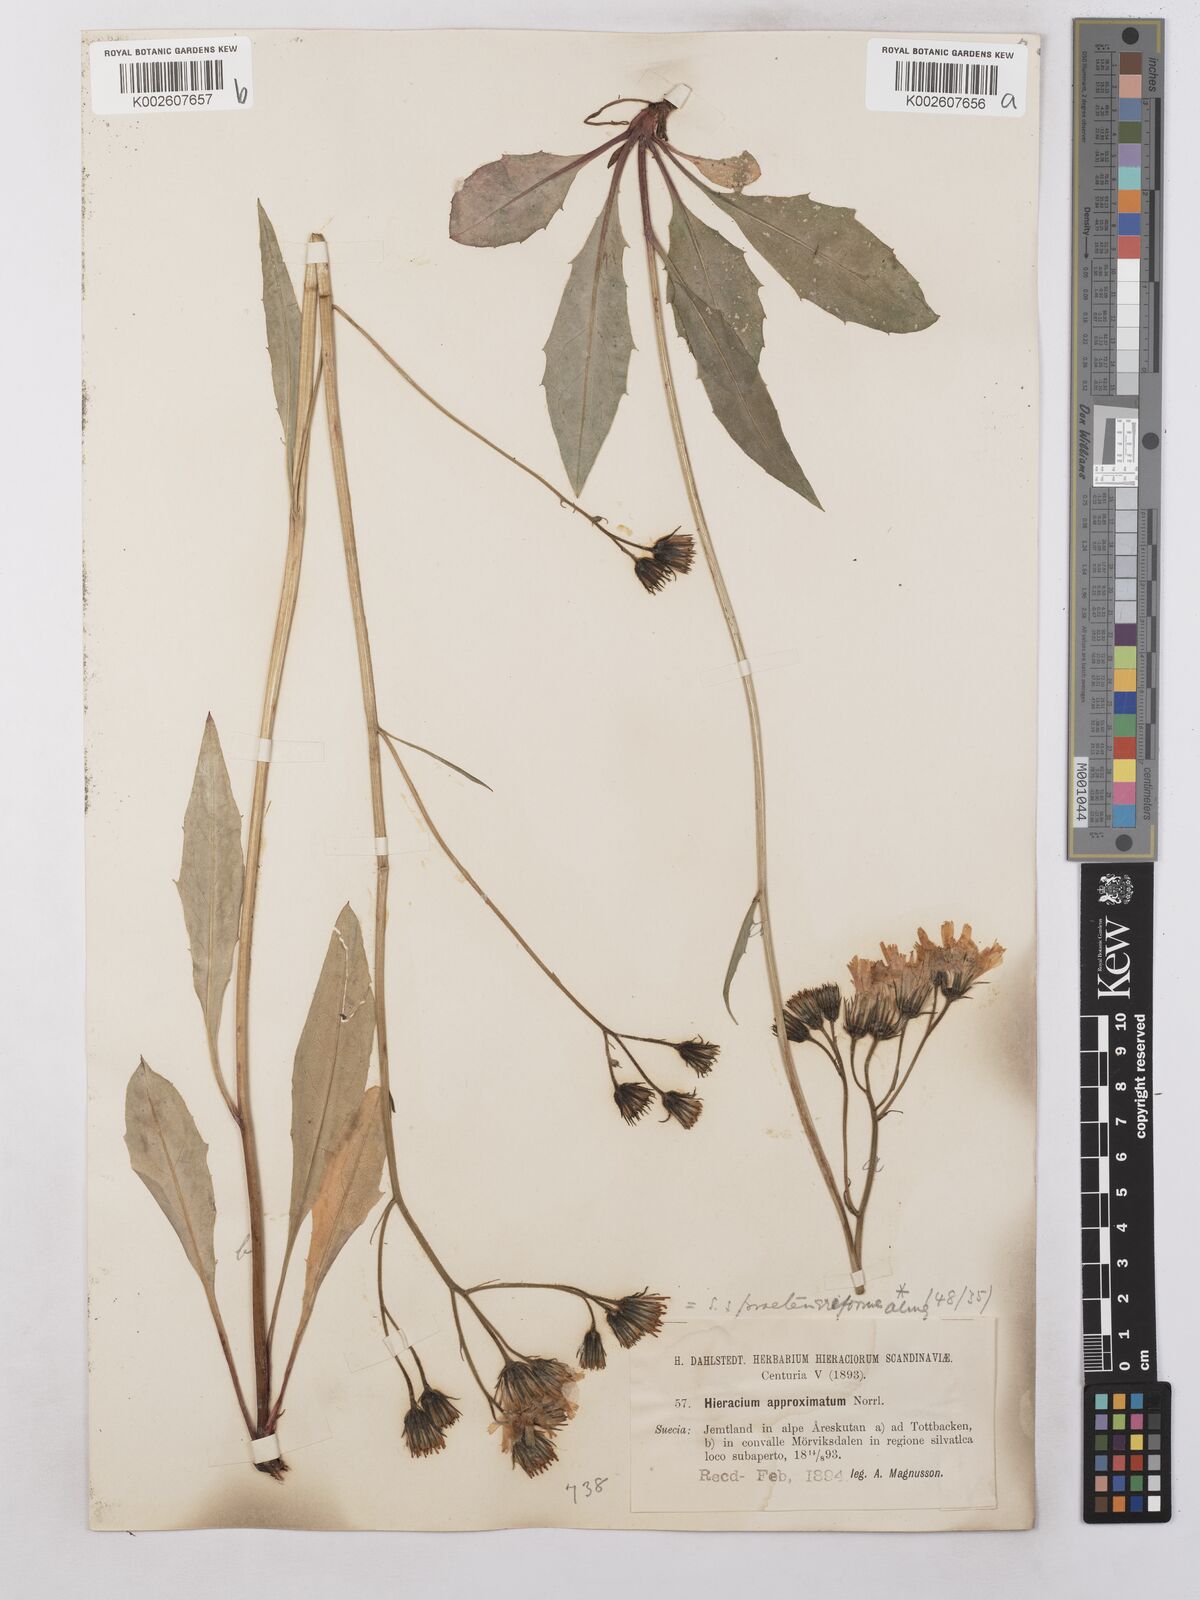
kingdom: Plantae
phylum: Tracheophyta
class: Magnoliopsida
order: Asterales
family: Asteraceae
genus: Hieracium
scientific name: Hieracium subramosum
